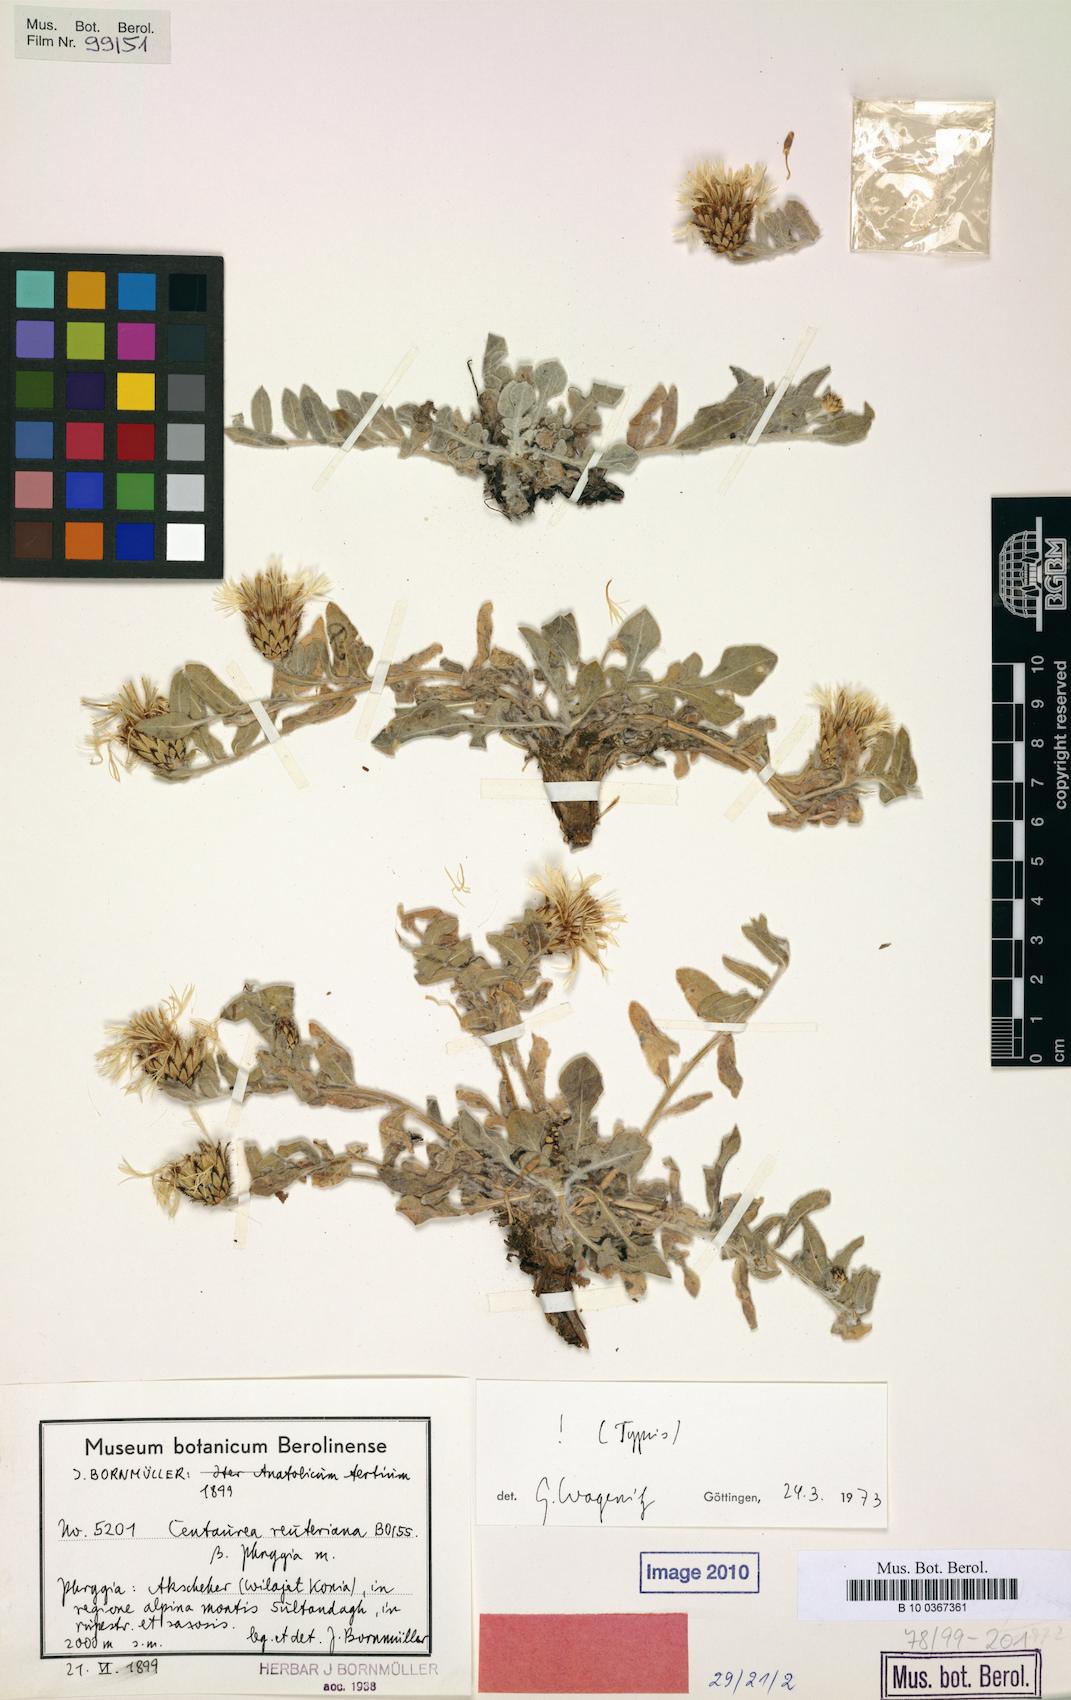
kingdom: Plantae
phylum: Tracheophyta
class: Magnoliopsida
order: Asterales
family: Asteraceae
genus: Centaurea
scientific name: Centaurea reuteriana
